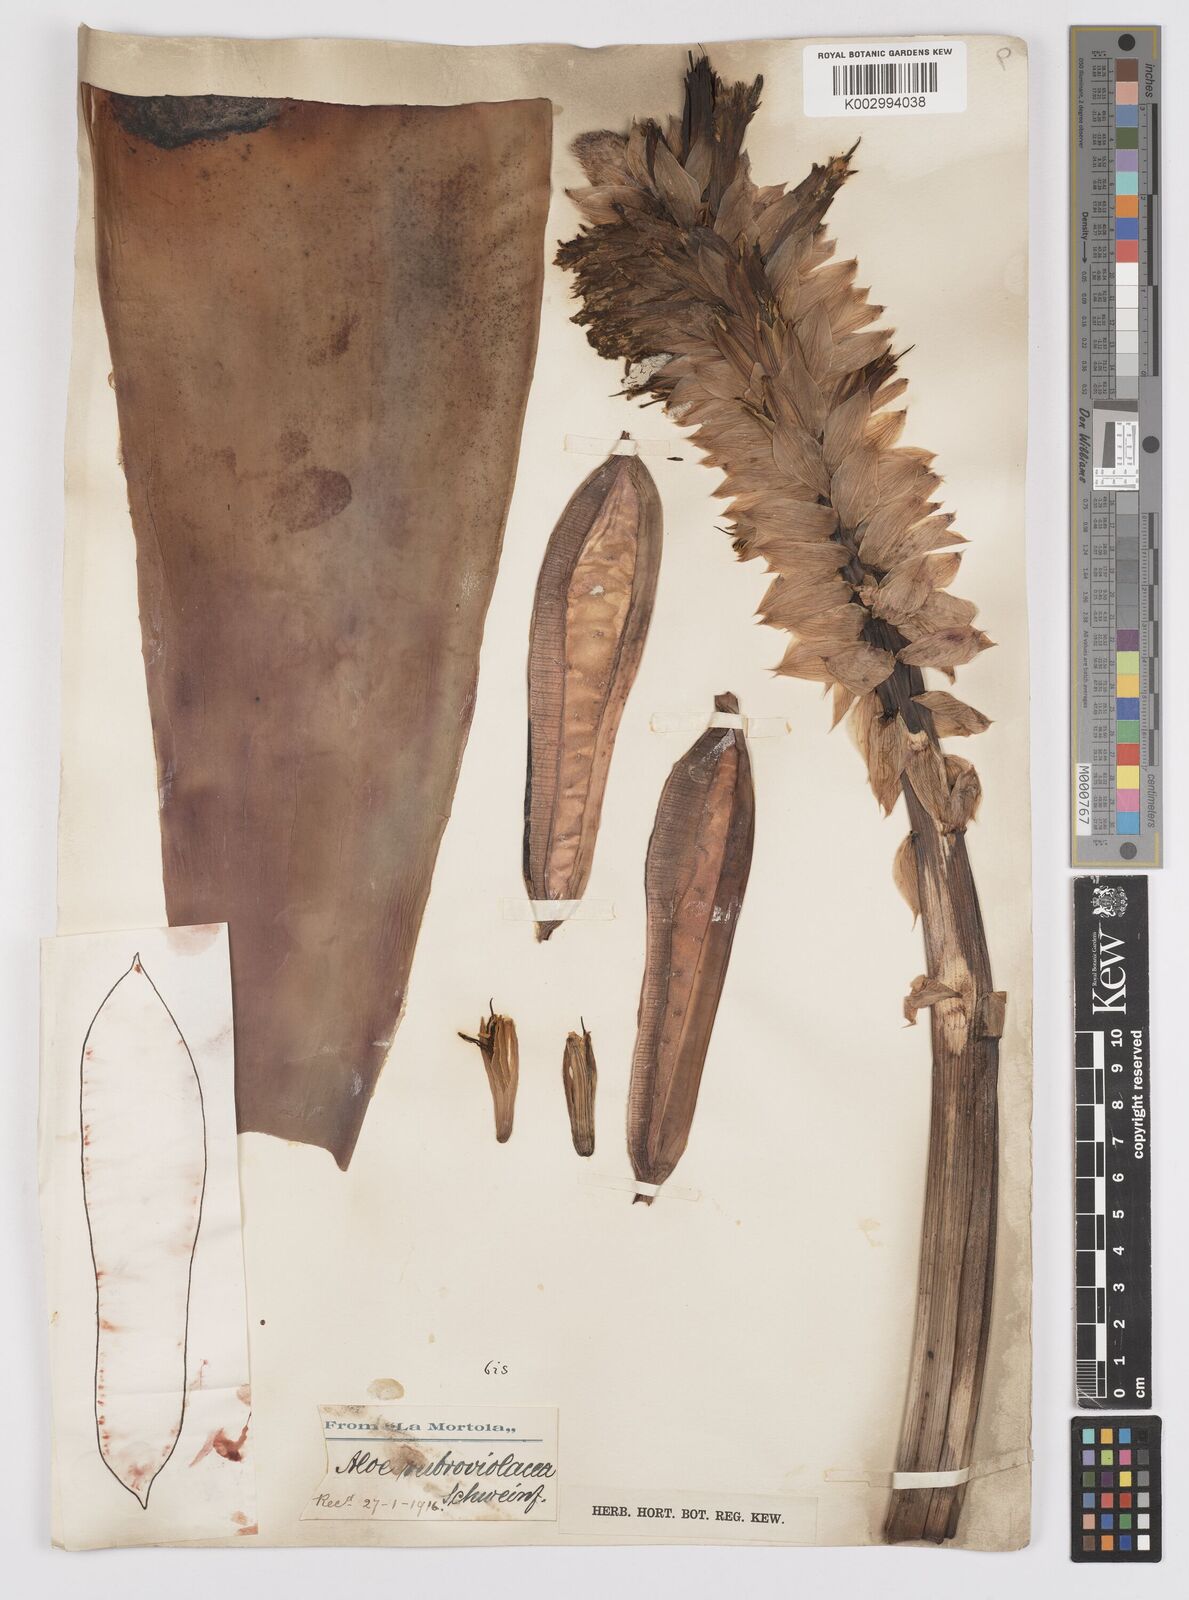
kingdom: Plantae
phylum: Tracheophyta
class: Liliopsida
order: Asparagales
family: Asphodelaceae
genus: Aloe
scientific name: Aloe rubroviolacea
